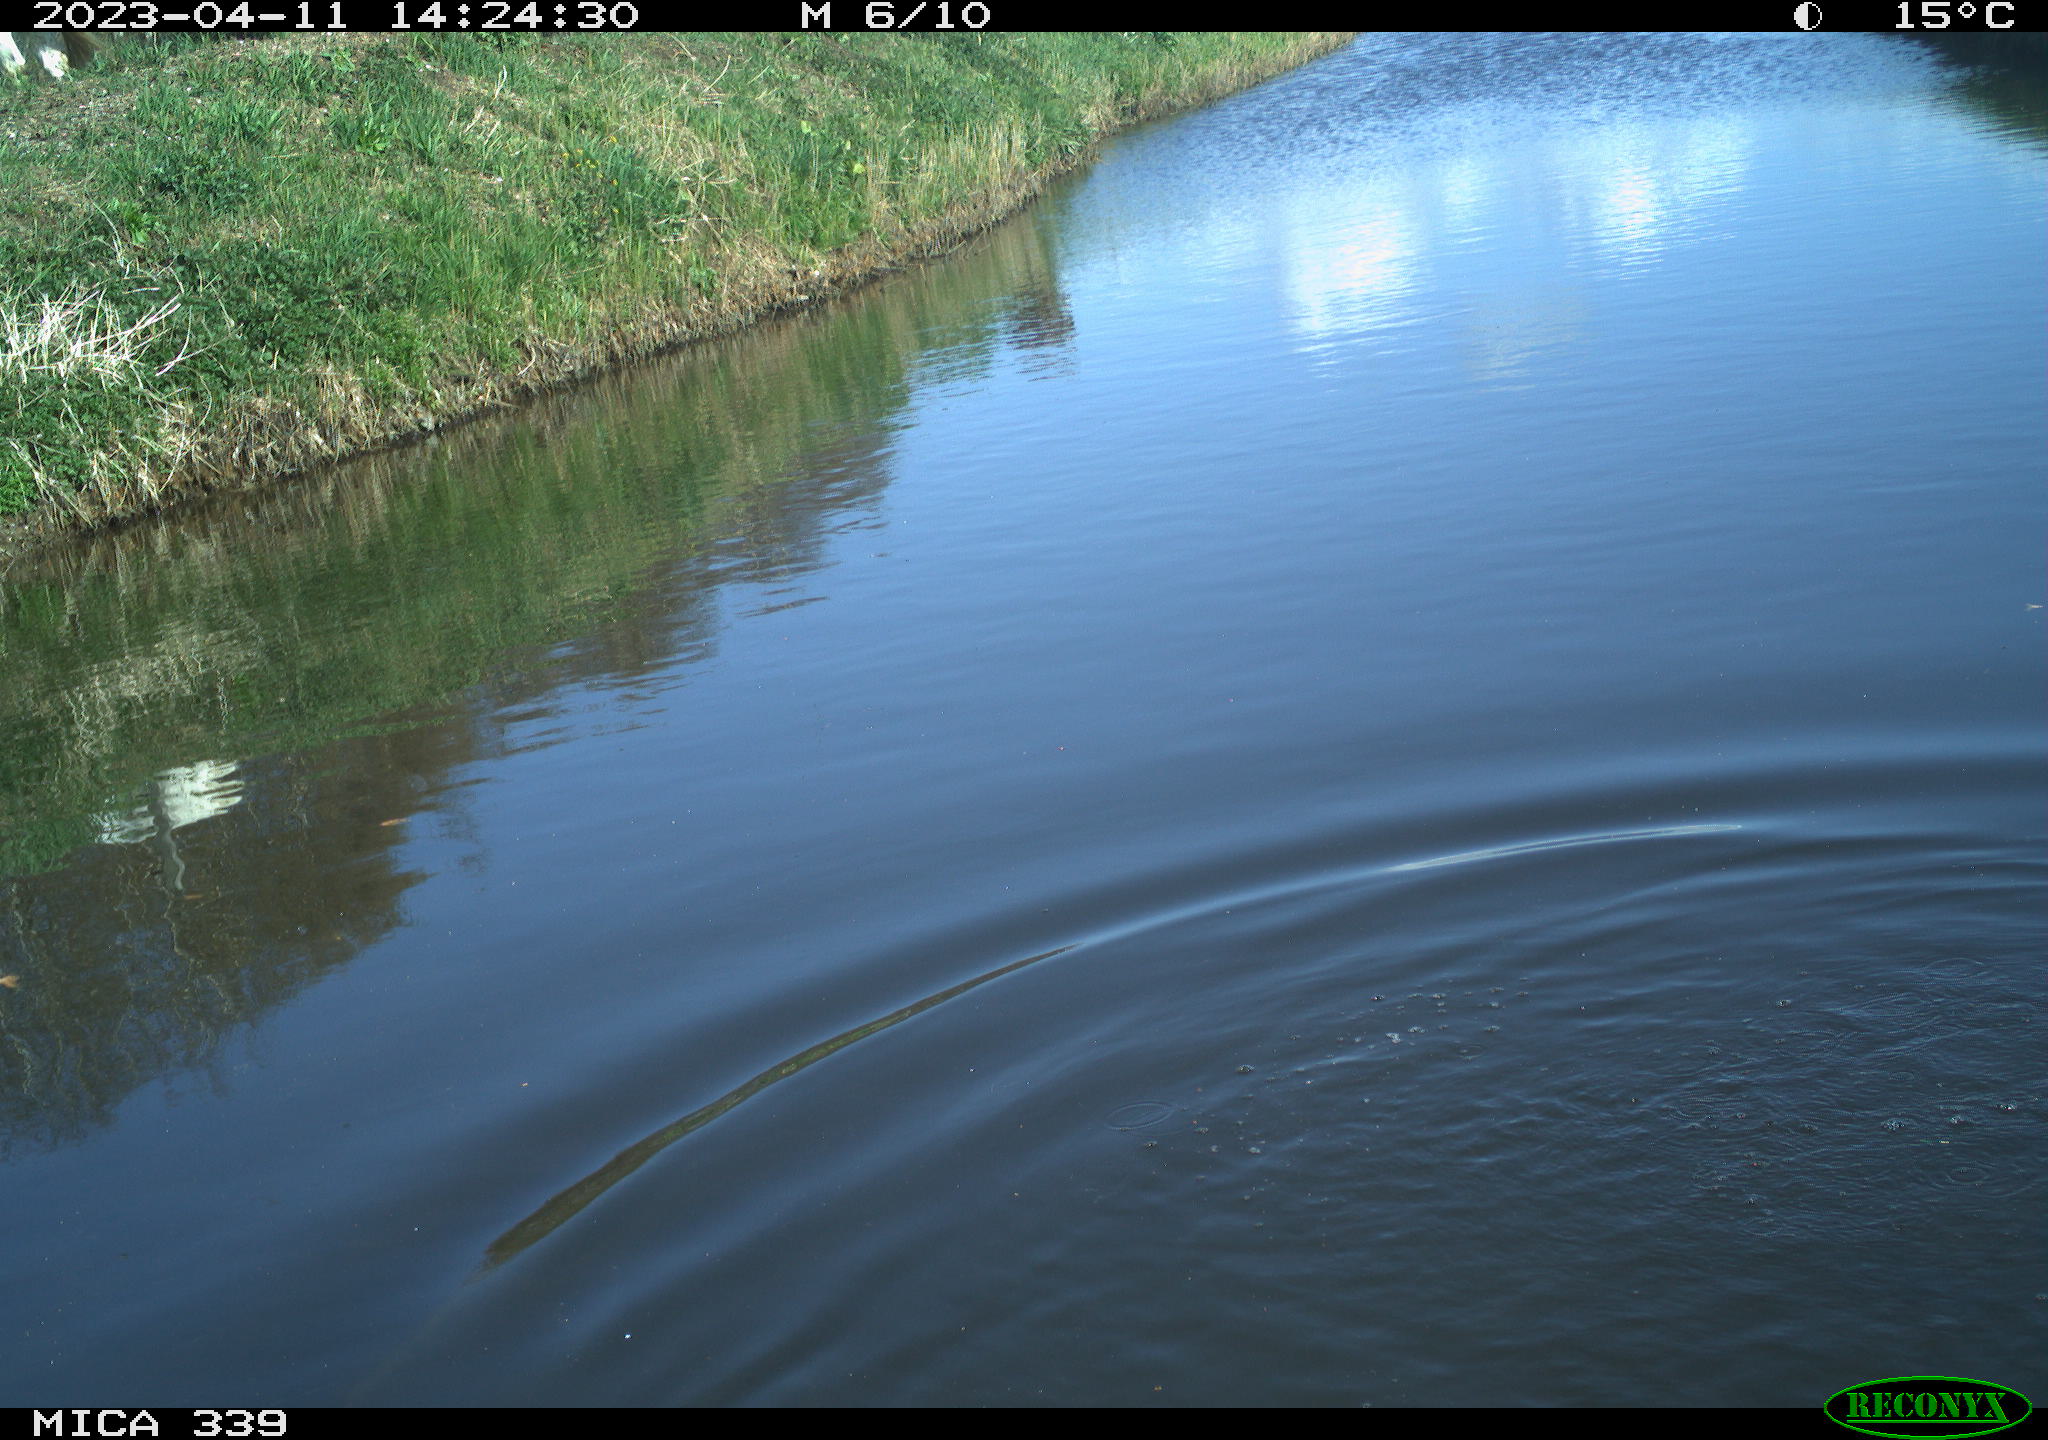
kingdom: Animalia
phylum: Chordata
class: Aves
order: Pelecaniformes
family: Ardeidae
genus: Ardea
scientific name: Ardea
